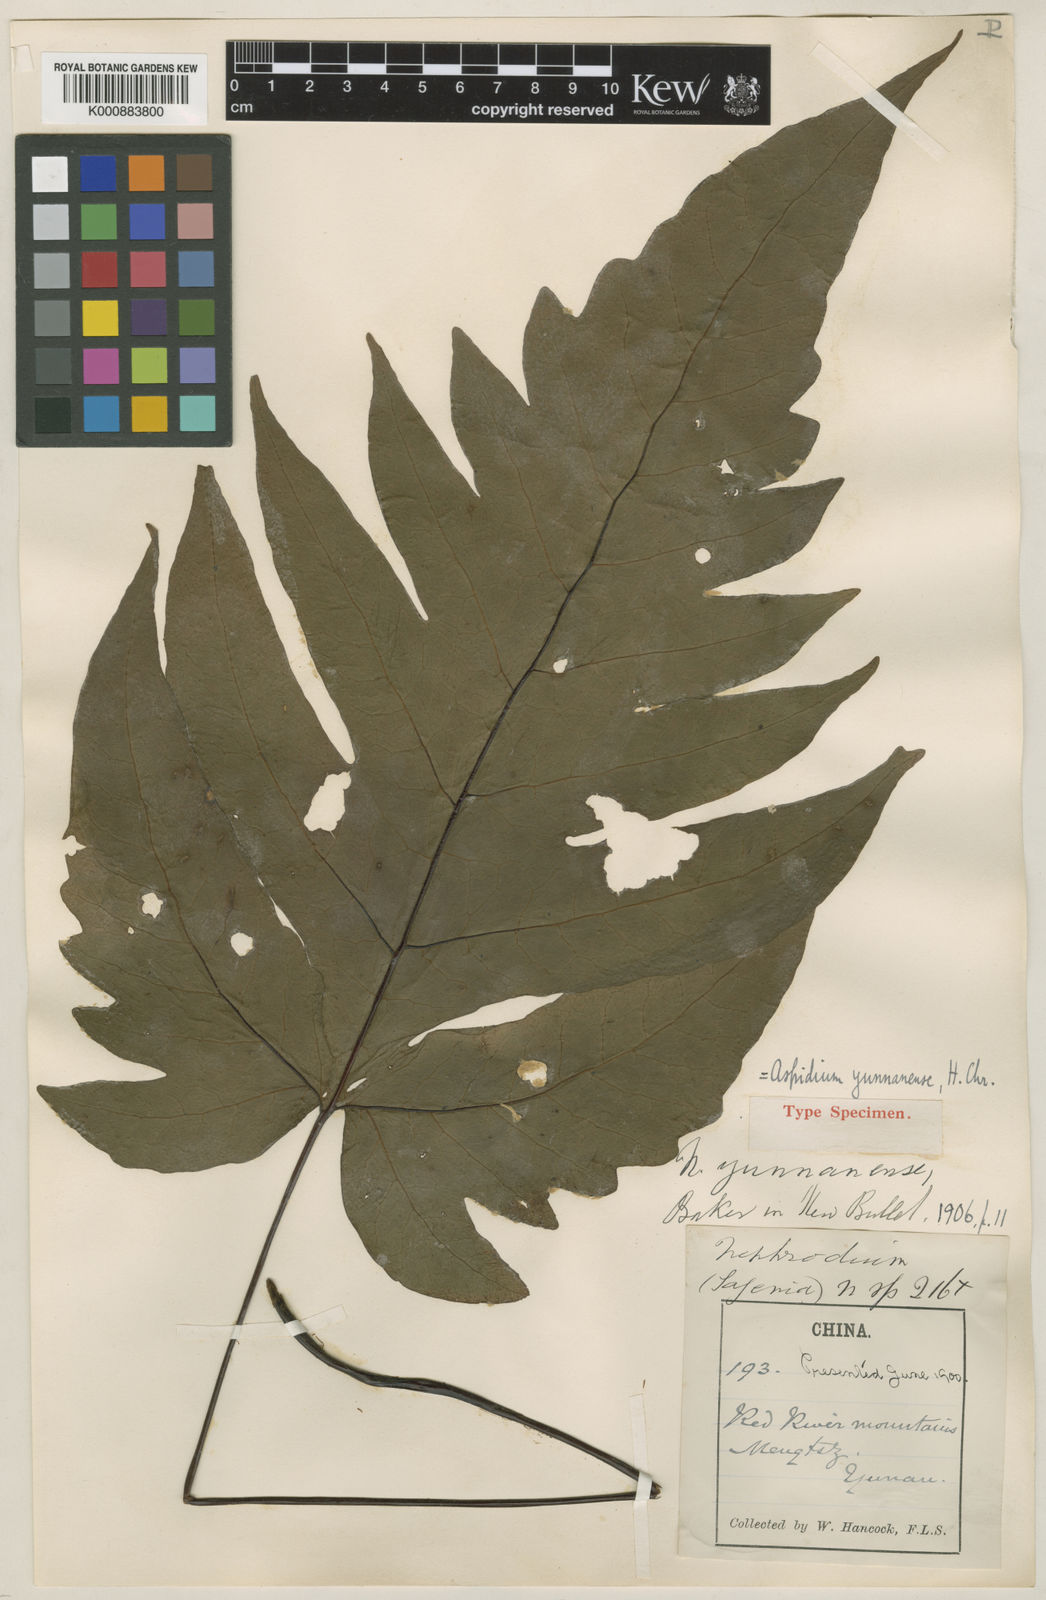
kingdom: Plantae
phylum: Tracheophyta
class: Polypodiopsida
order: Polypodiales
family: Tectariaceae
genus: Tectaria
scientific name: Tectaria griffithii
